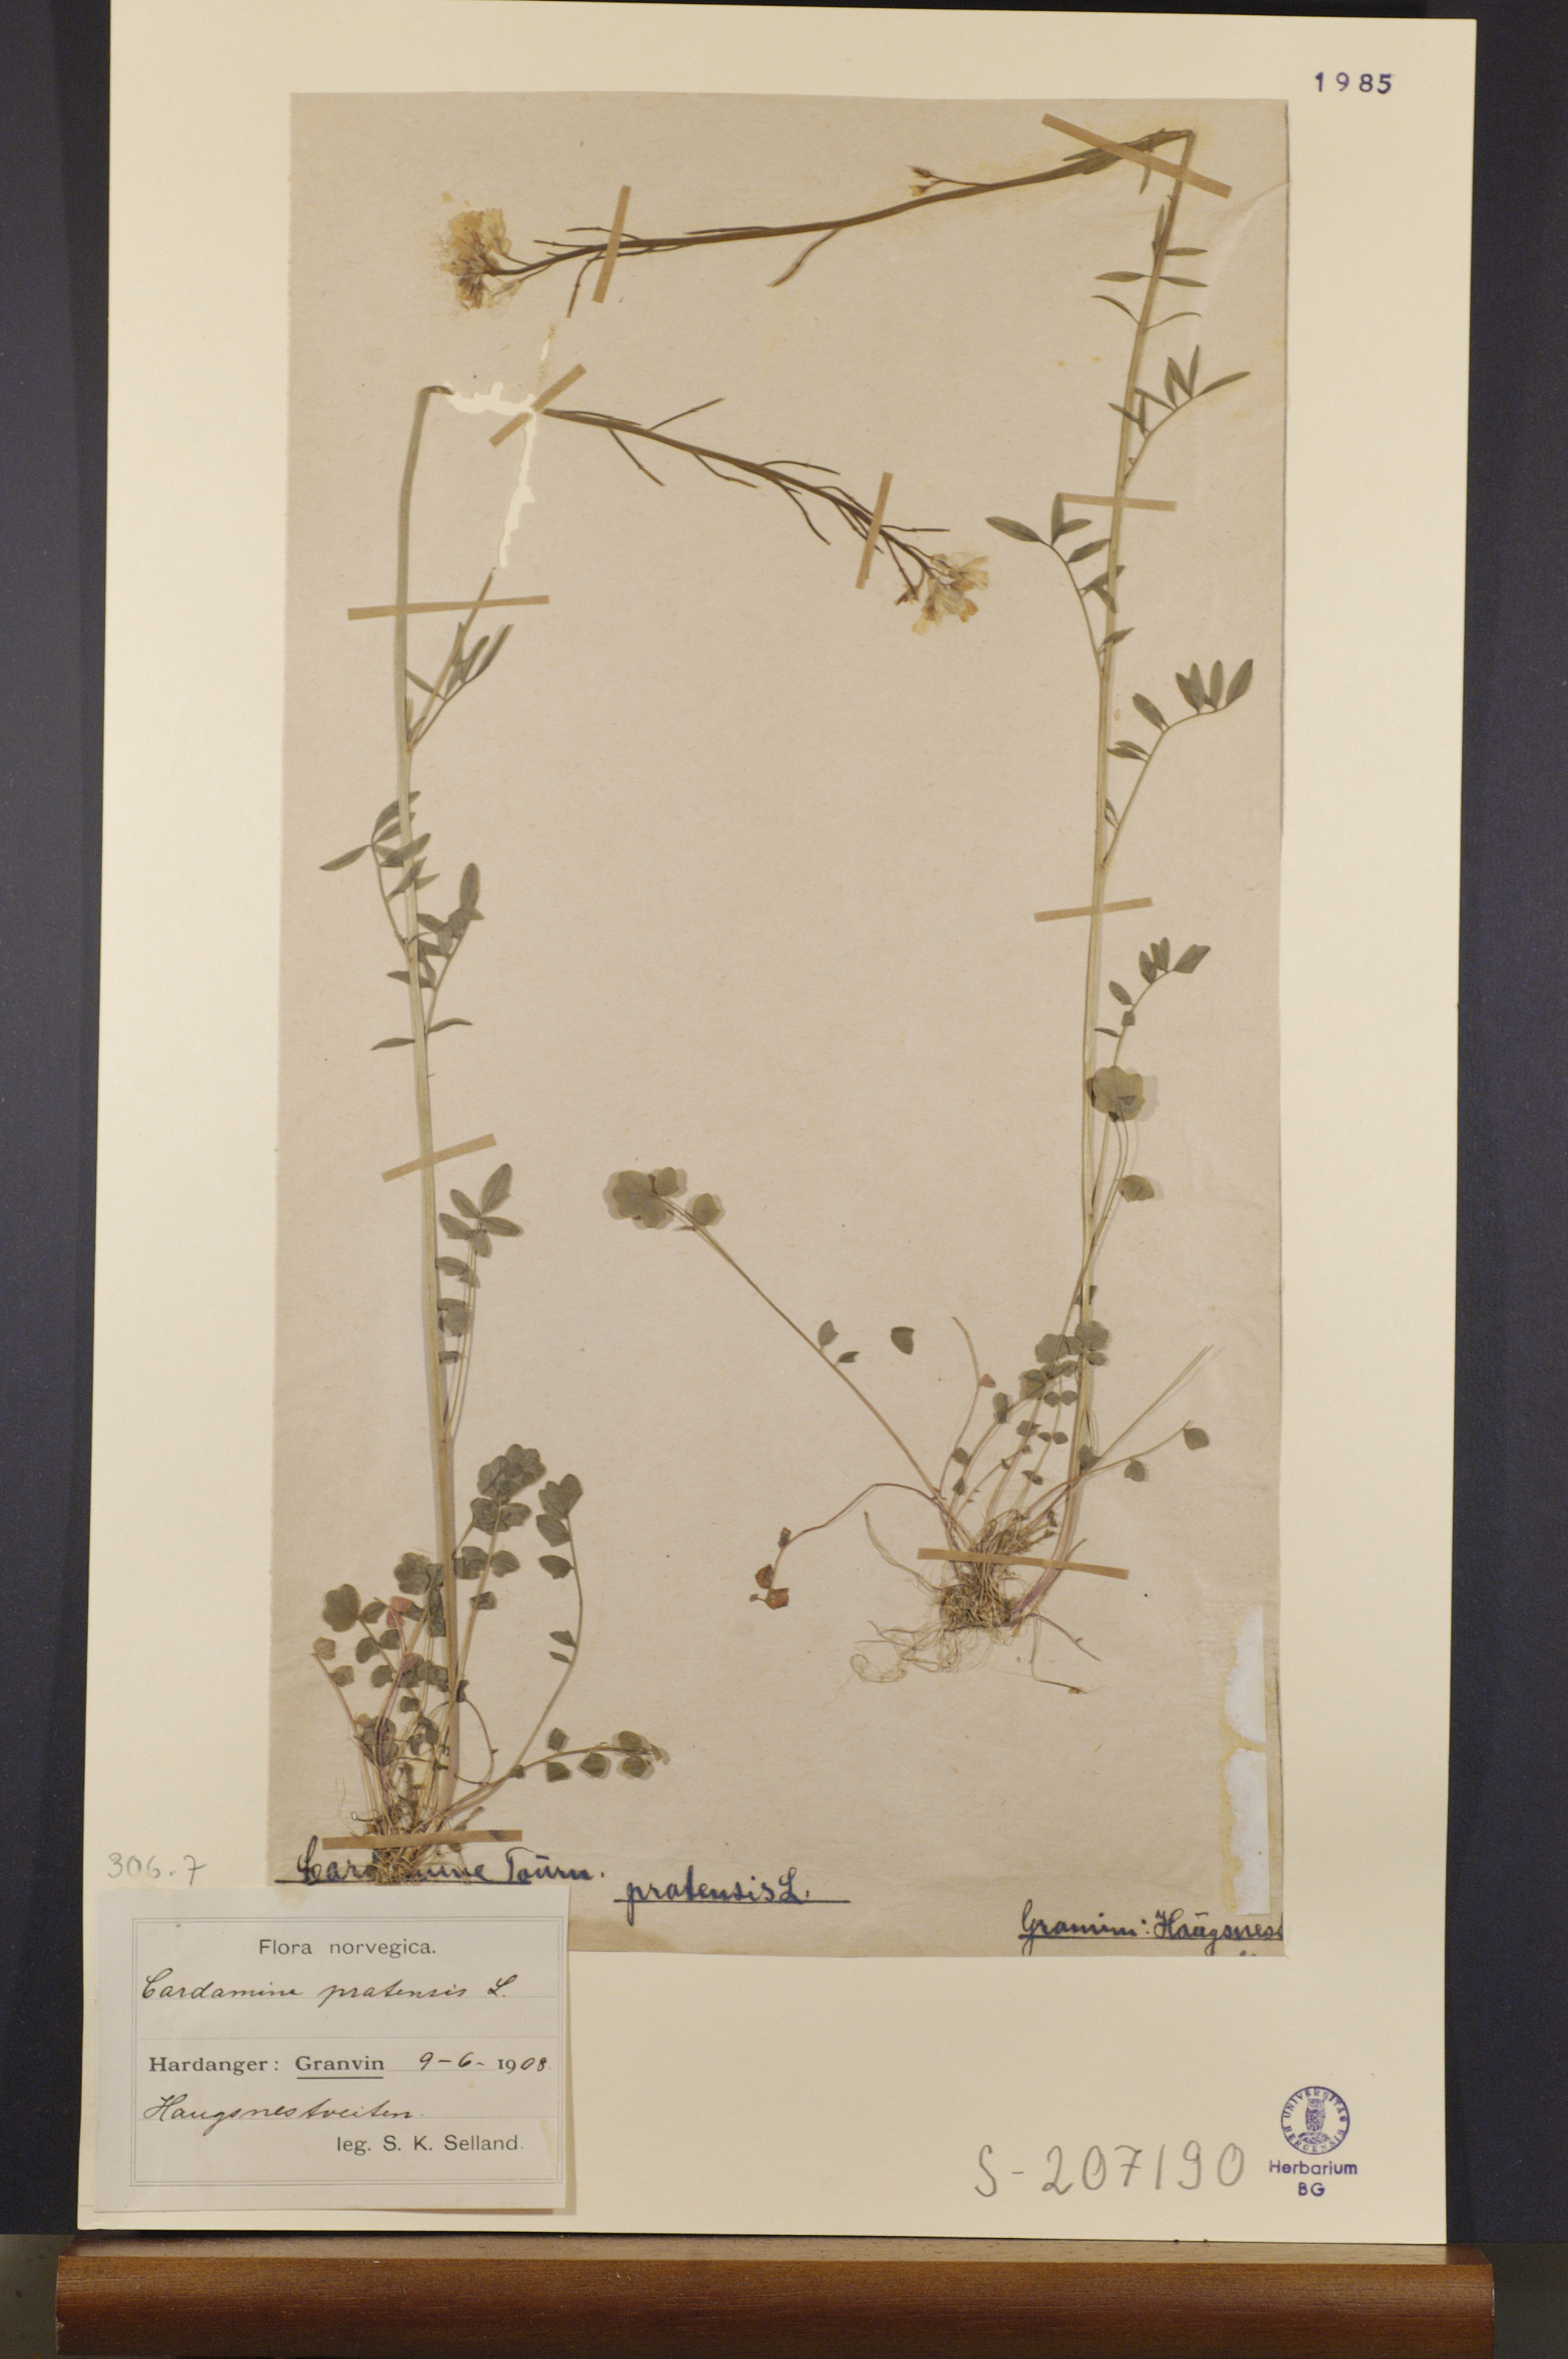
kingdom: Plantae
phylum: Tracheophyta
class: Magnoliopsida
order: Brassicales
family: Brassicaceae
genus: Cardamine
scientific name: Cardamine pratensis
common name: Cuckoo flower
